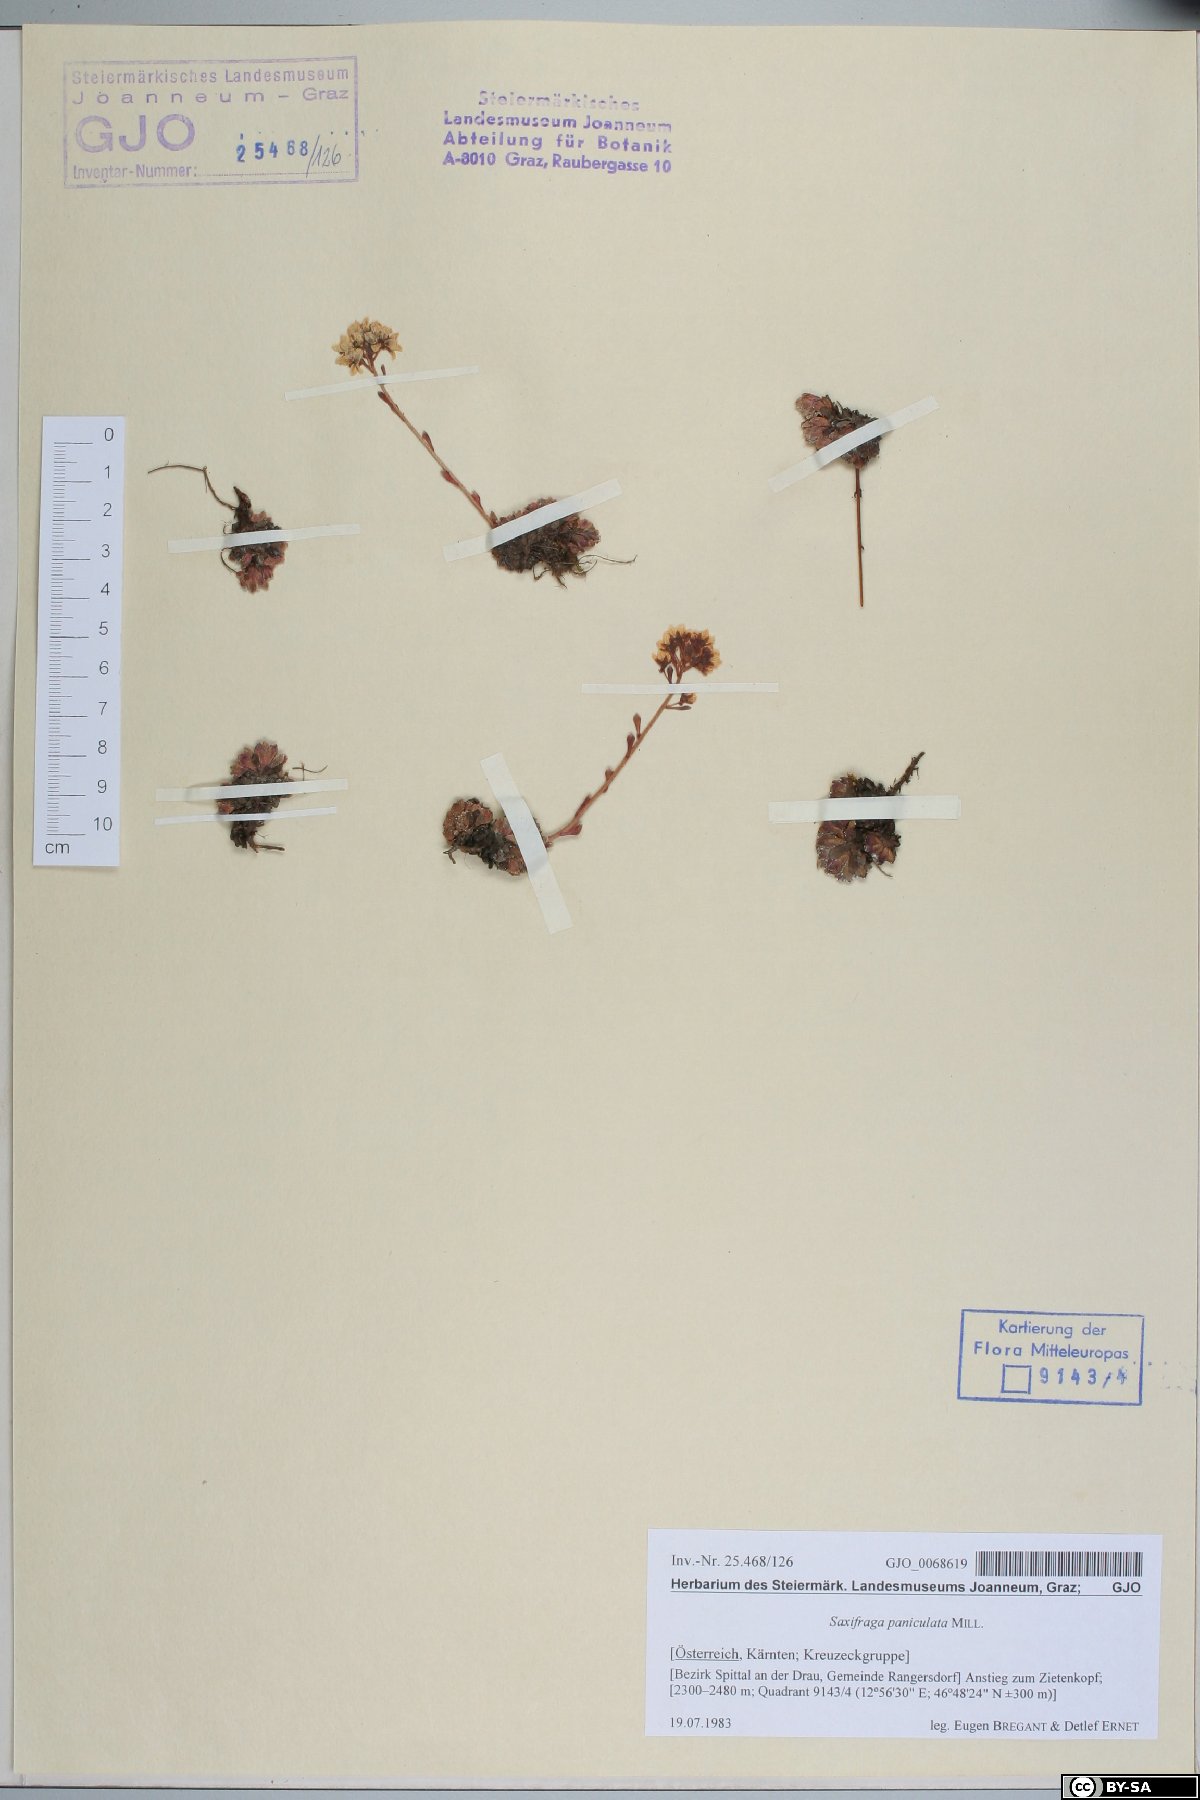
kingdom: Plantae
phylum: Tracheophyta
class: Magnoliopsida
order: Saxifragales
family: Saxifragaceae
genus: Saxifraga
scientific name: Saxifraga paniculata
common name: Livelong saxifrage
